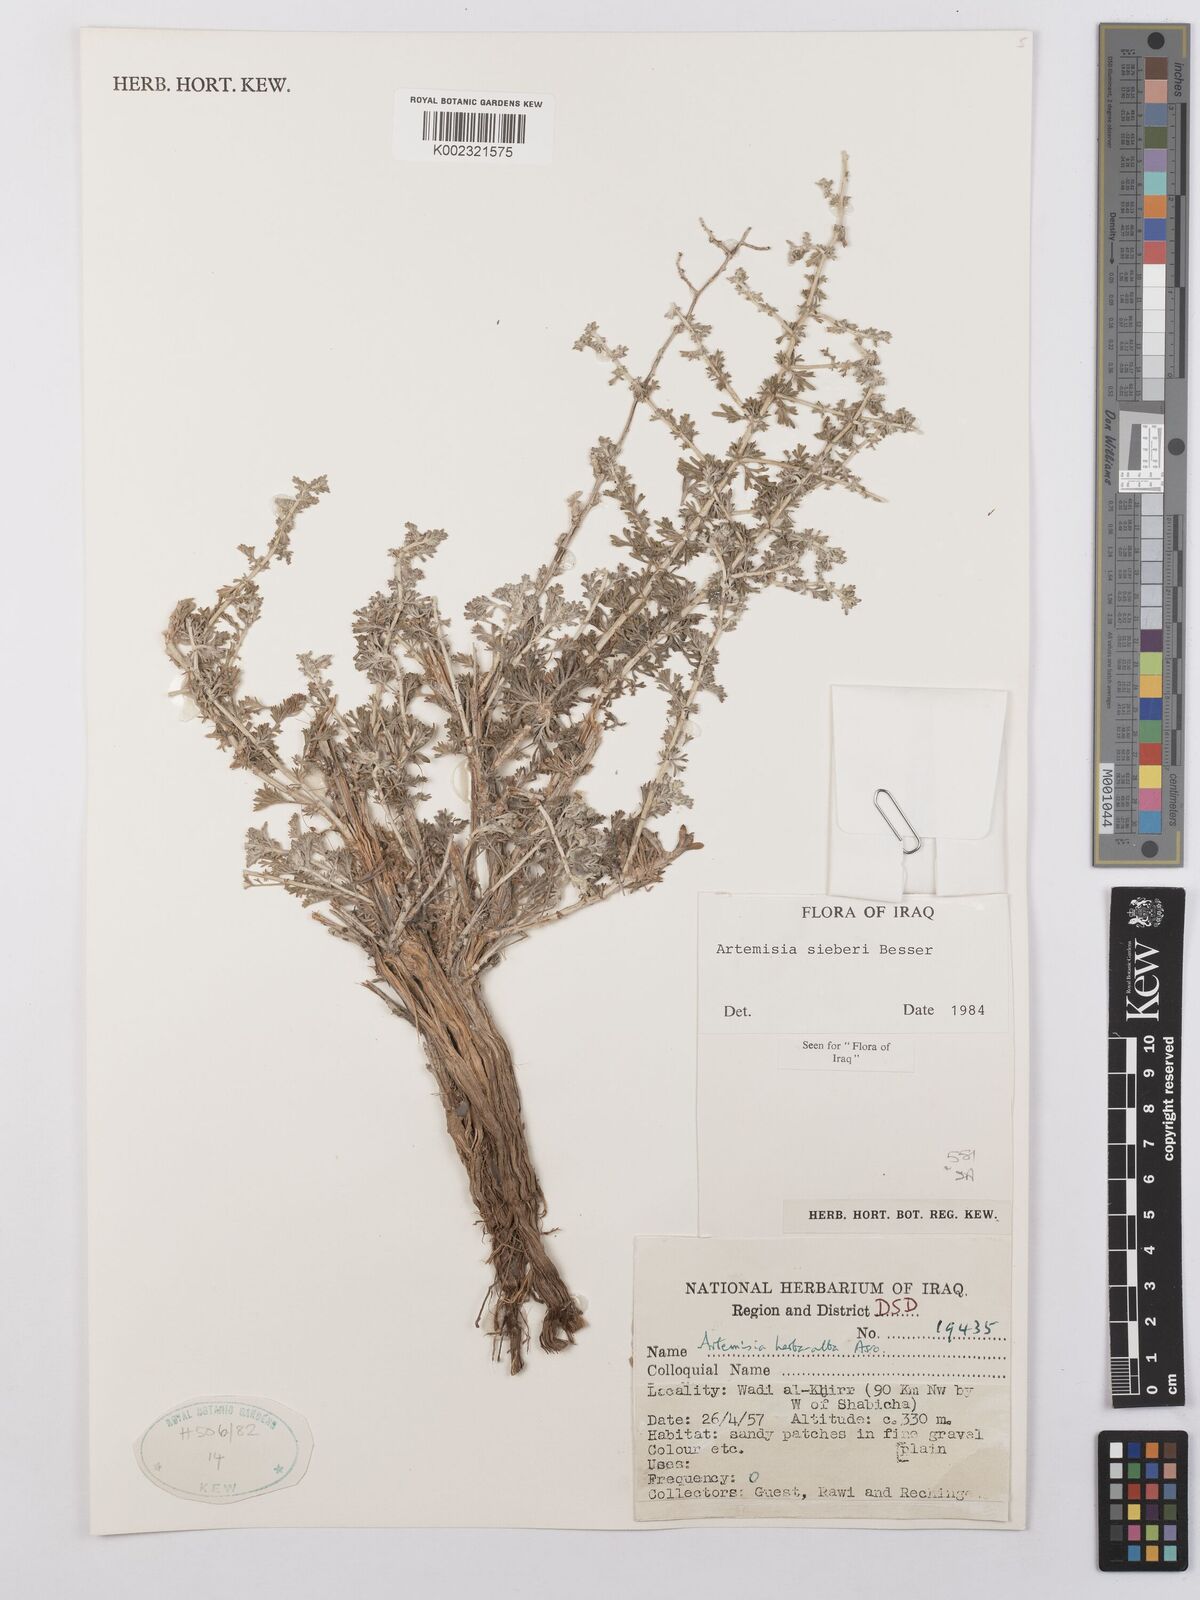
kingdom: Plantae
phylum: Tracheophyta
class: Magnoliopsida
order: Asterales
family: Asteraceae
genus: Artemisia
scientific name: Artemisia sieberi
